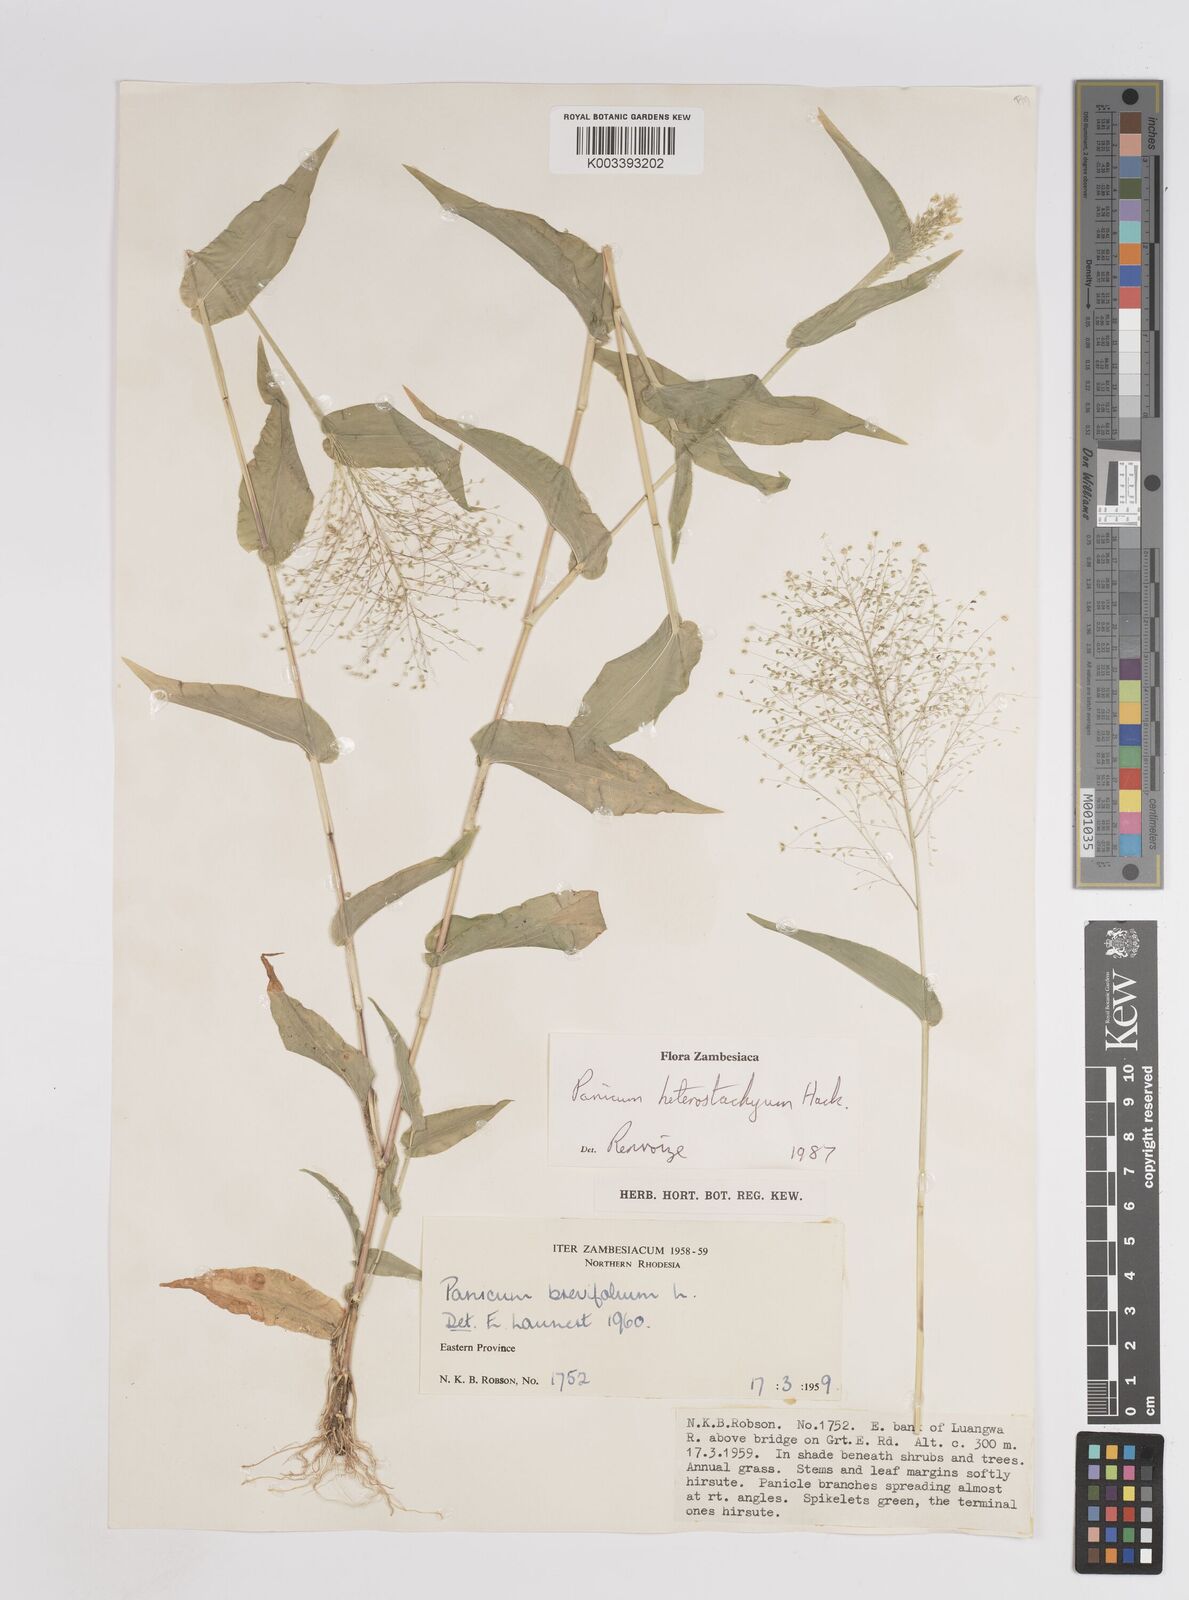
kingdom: Plantae
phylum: Tracheophyta
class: Liliopsida
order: Poales
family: Poaceae
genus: Panicum
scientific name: Panicum hirtum
